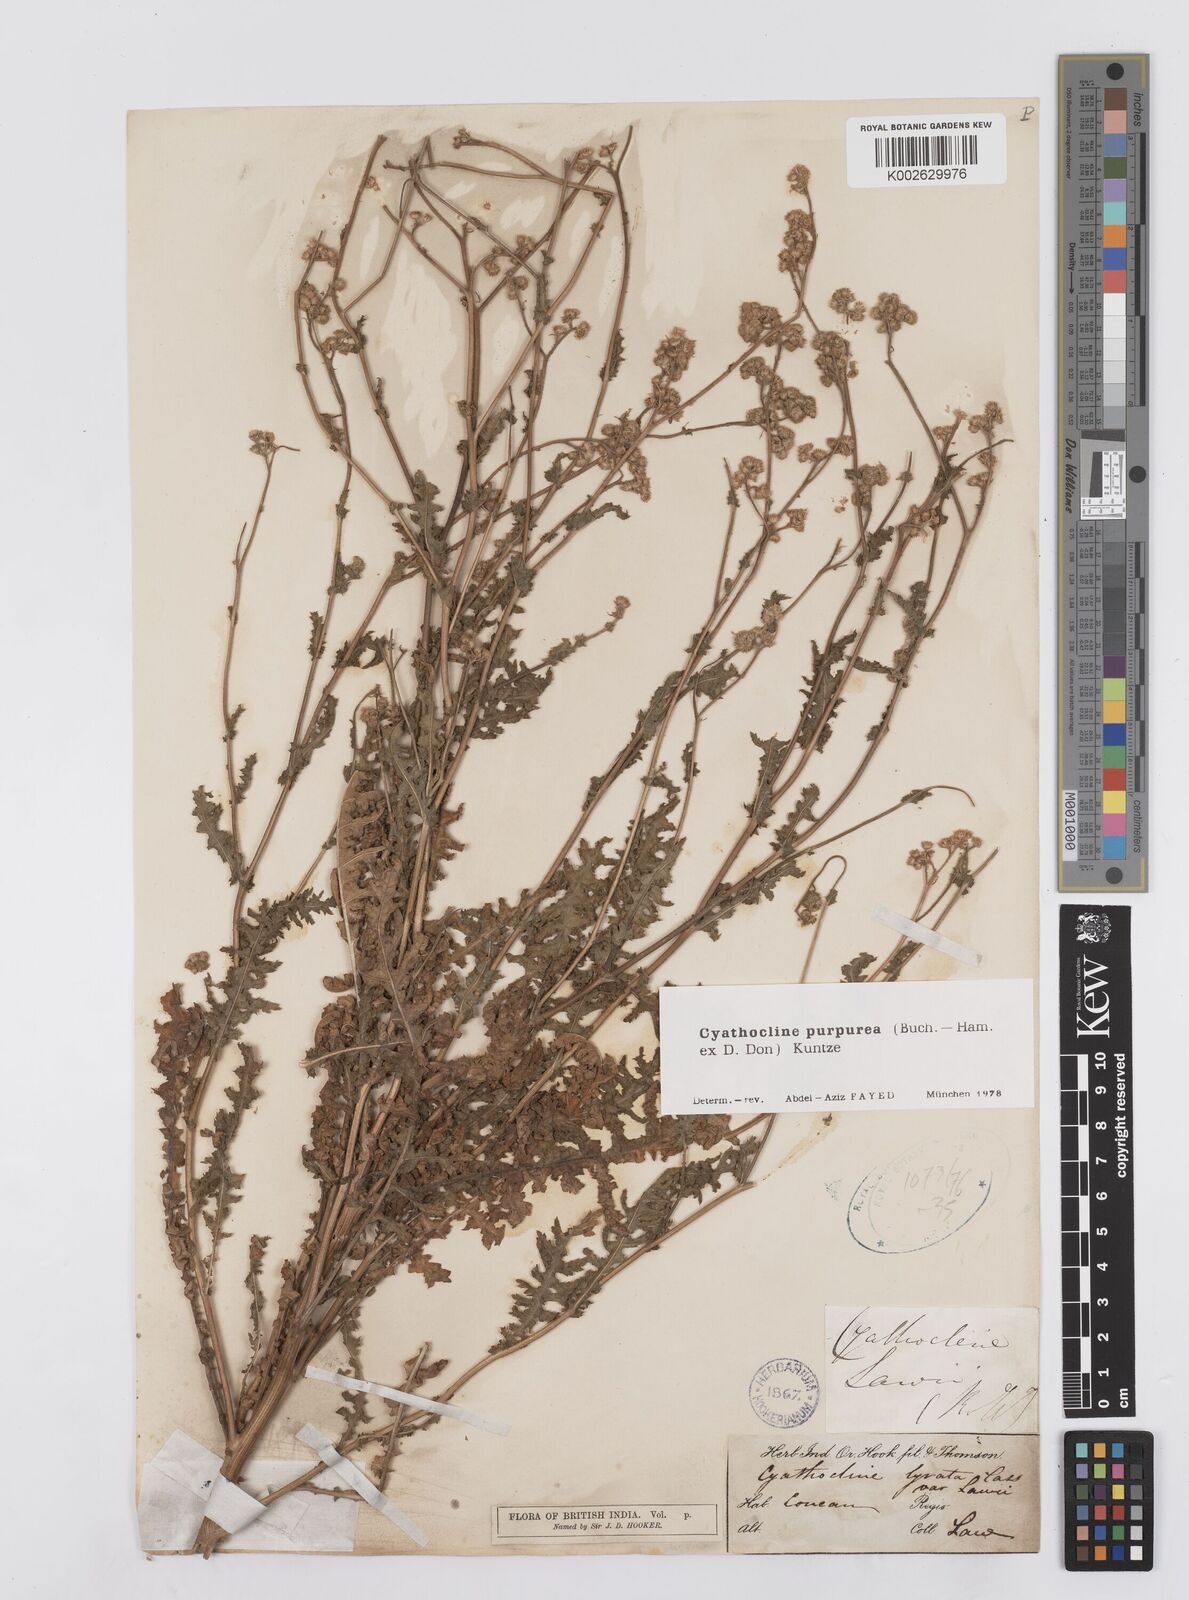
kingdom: Plantae
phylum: Tracheophyta
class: Magnoliopsida
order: Asterales
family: Asteraceae
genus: Cyathocline
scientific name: Cyathocline purpurea
